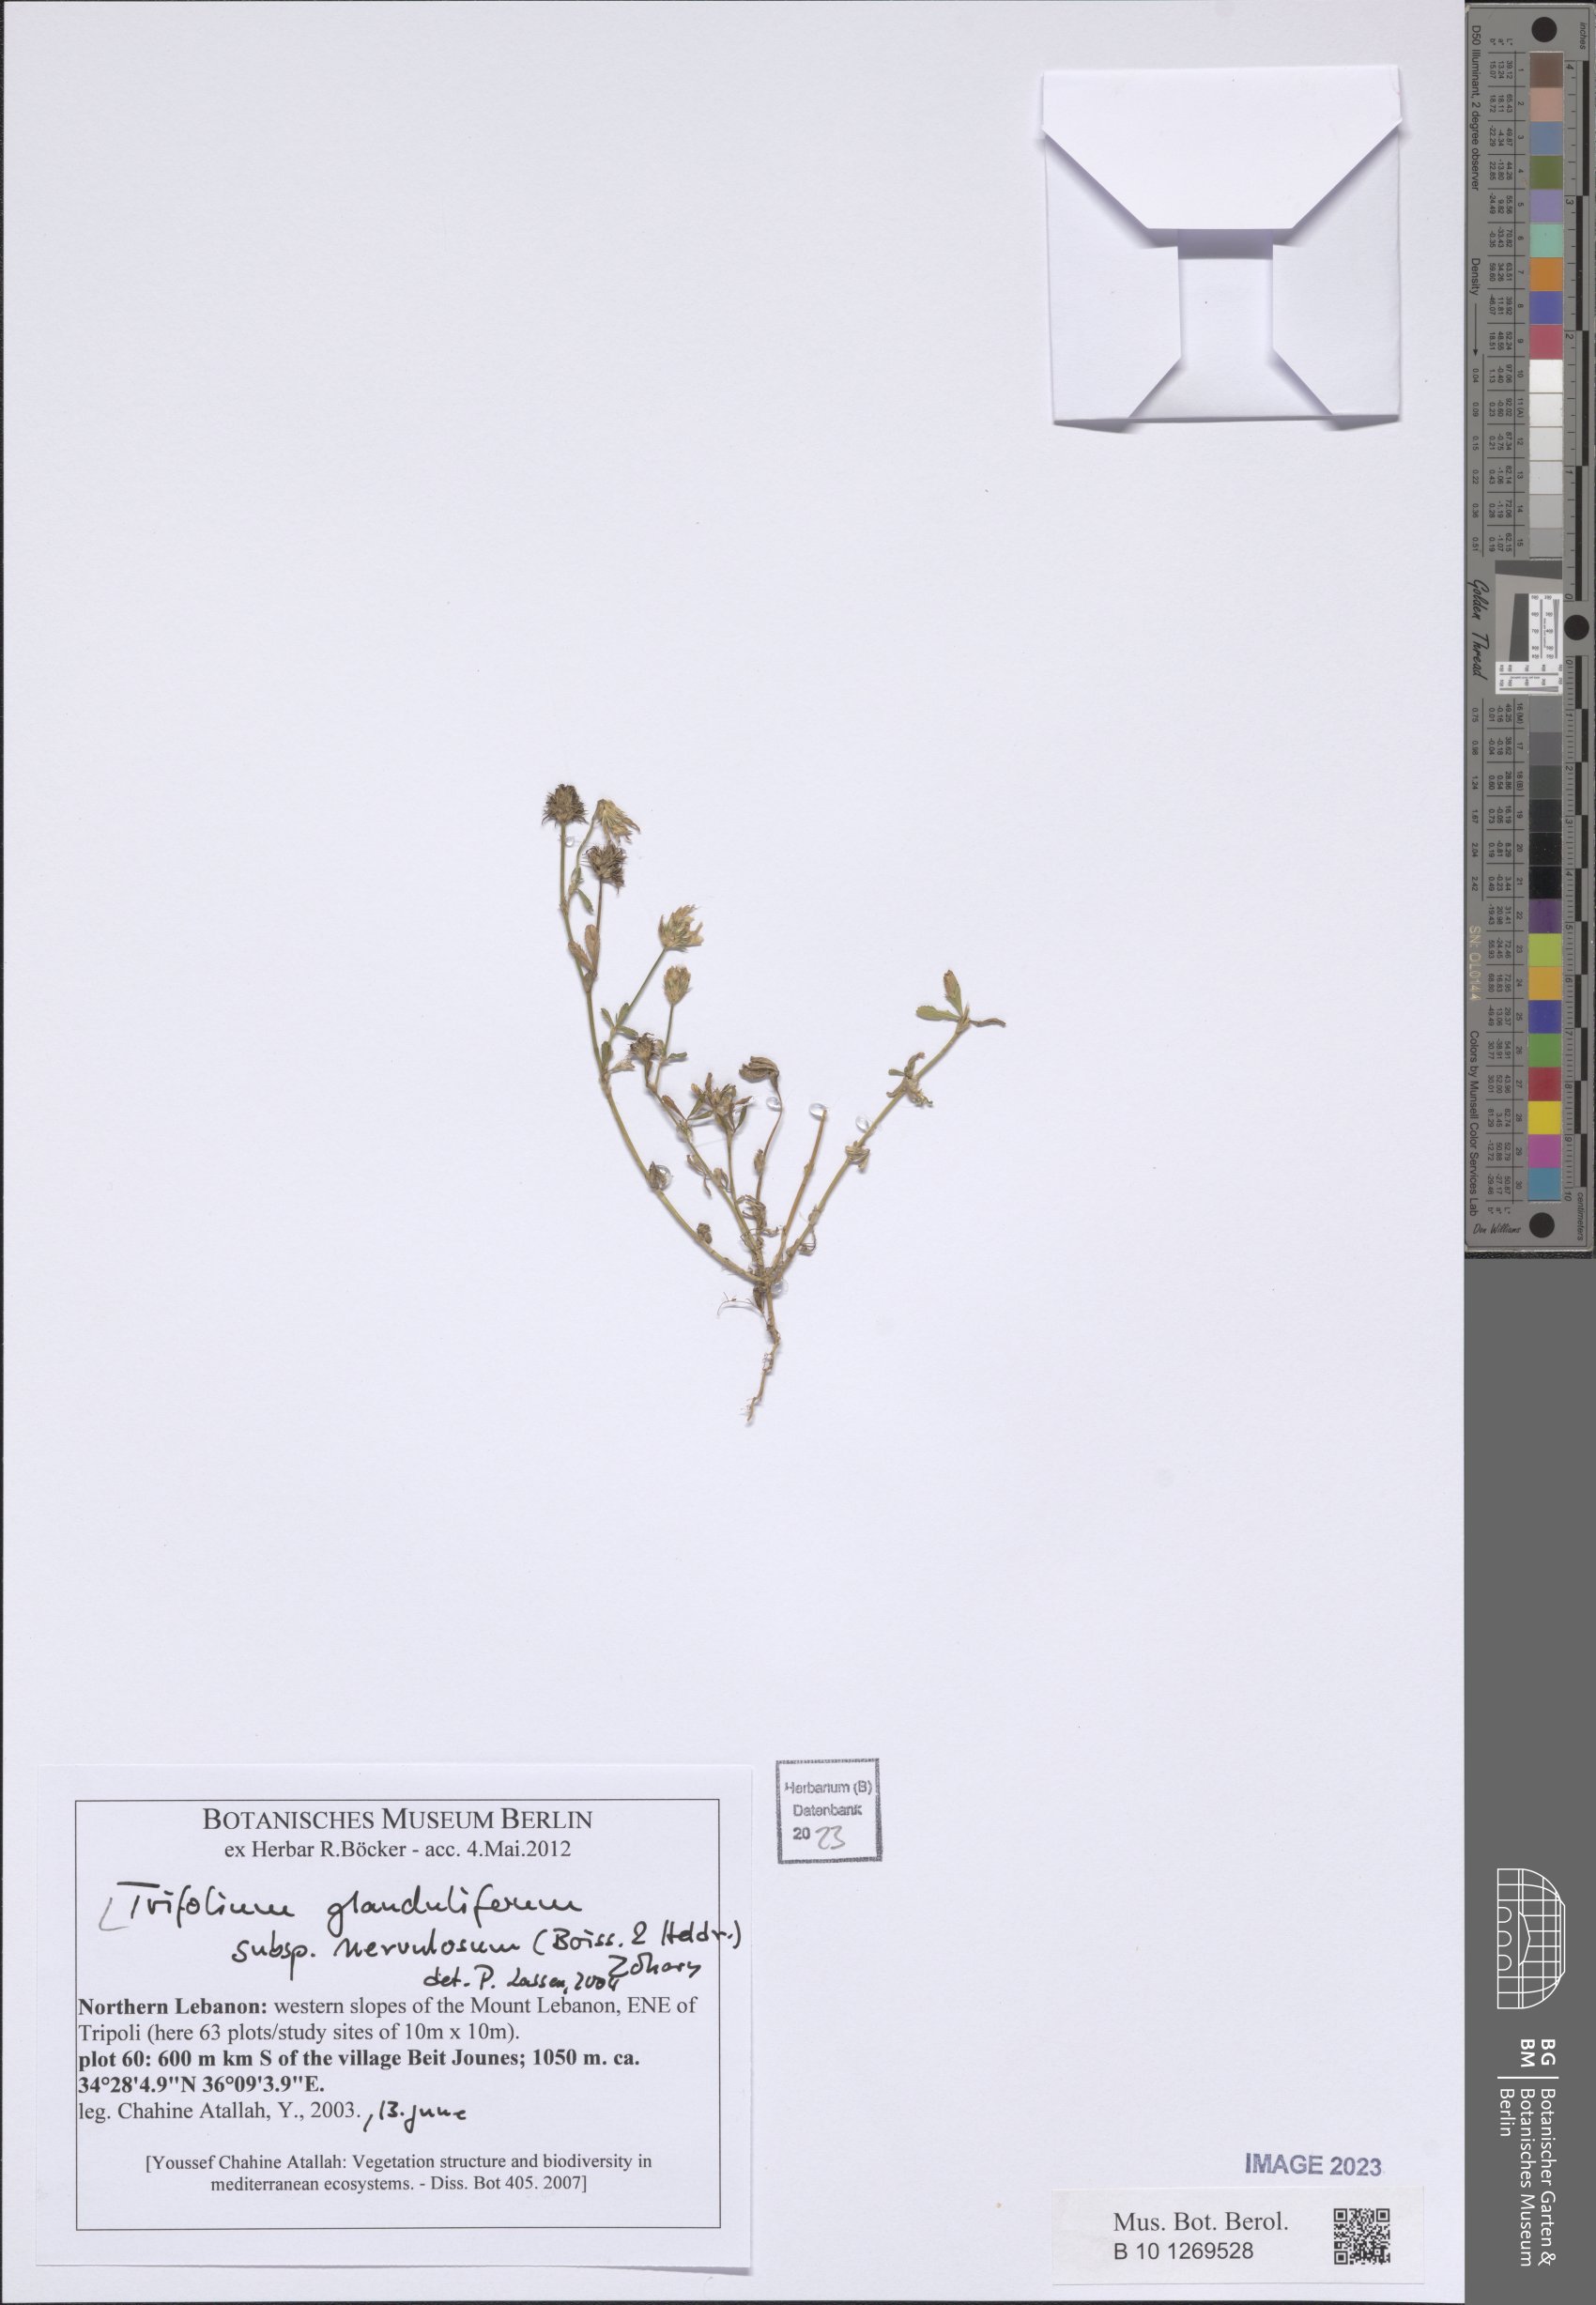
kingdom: Plantae
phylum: Tracheophyta
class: Magnoliopsida
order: Fabales
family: Fabaceae
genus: Trifolium
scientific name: Trifolium glanduliferum
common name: Glandular clover
